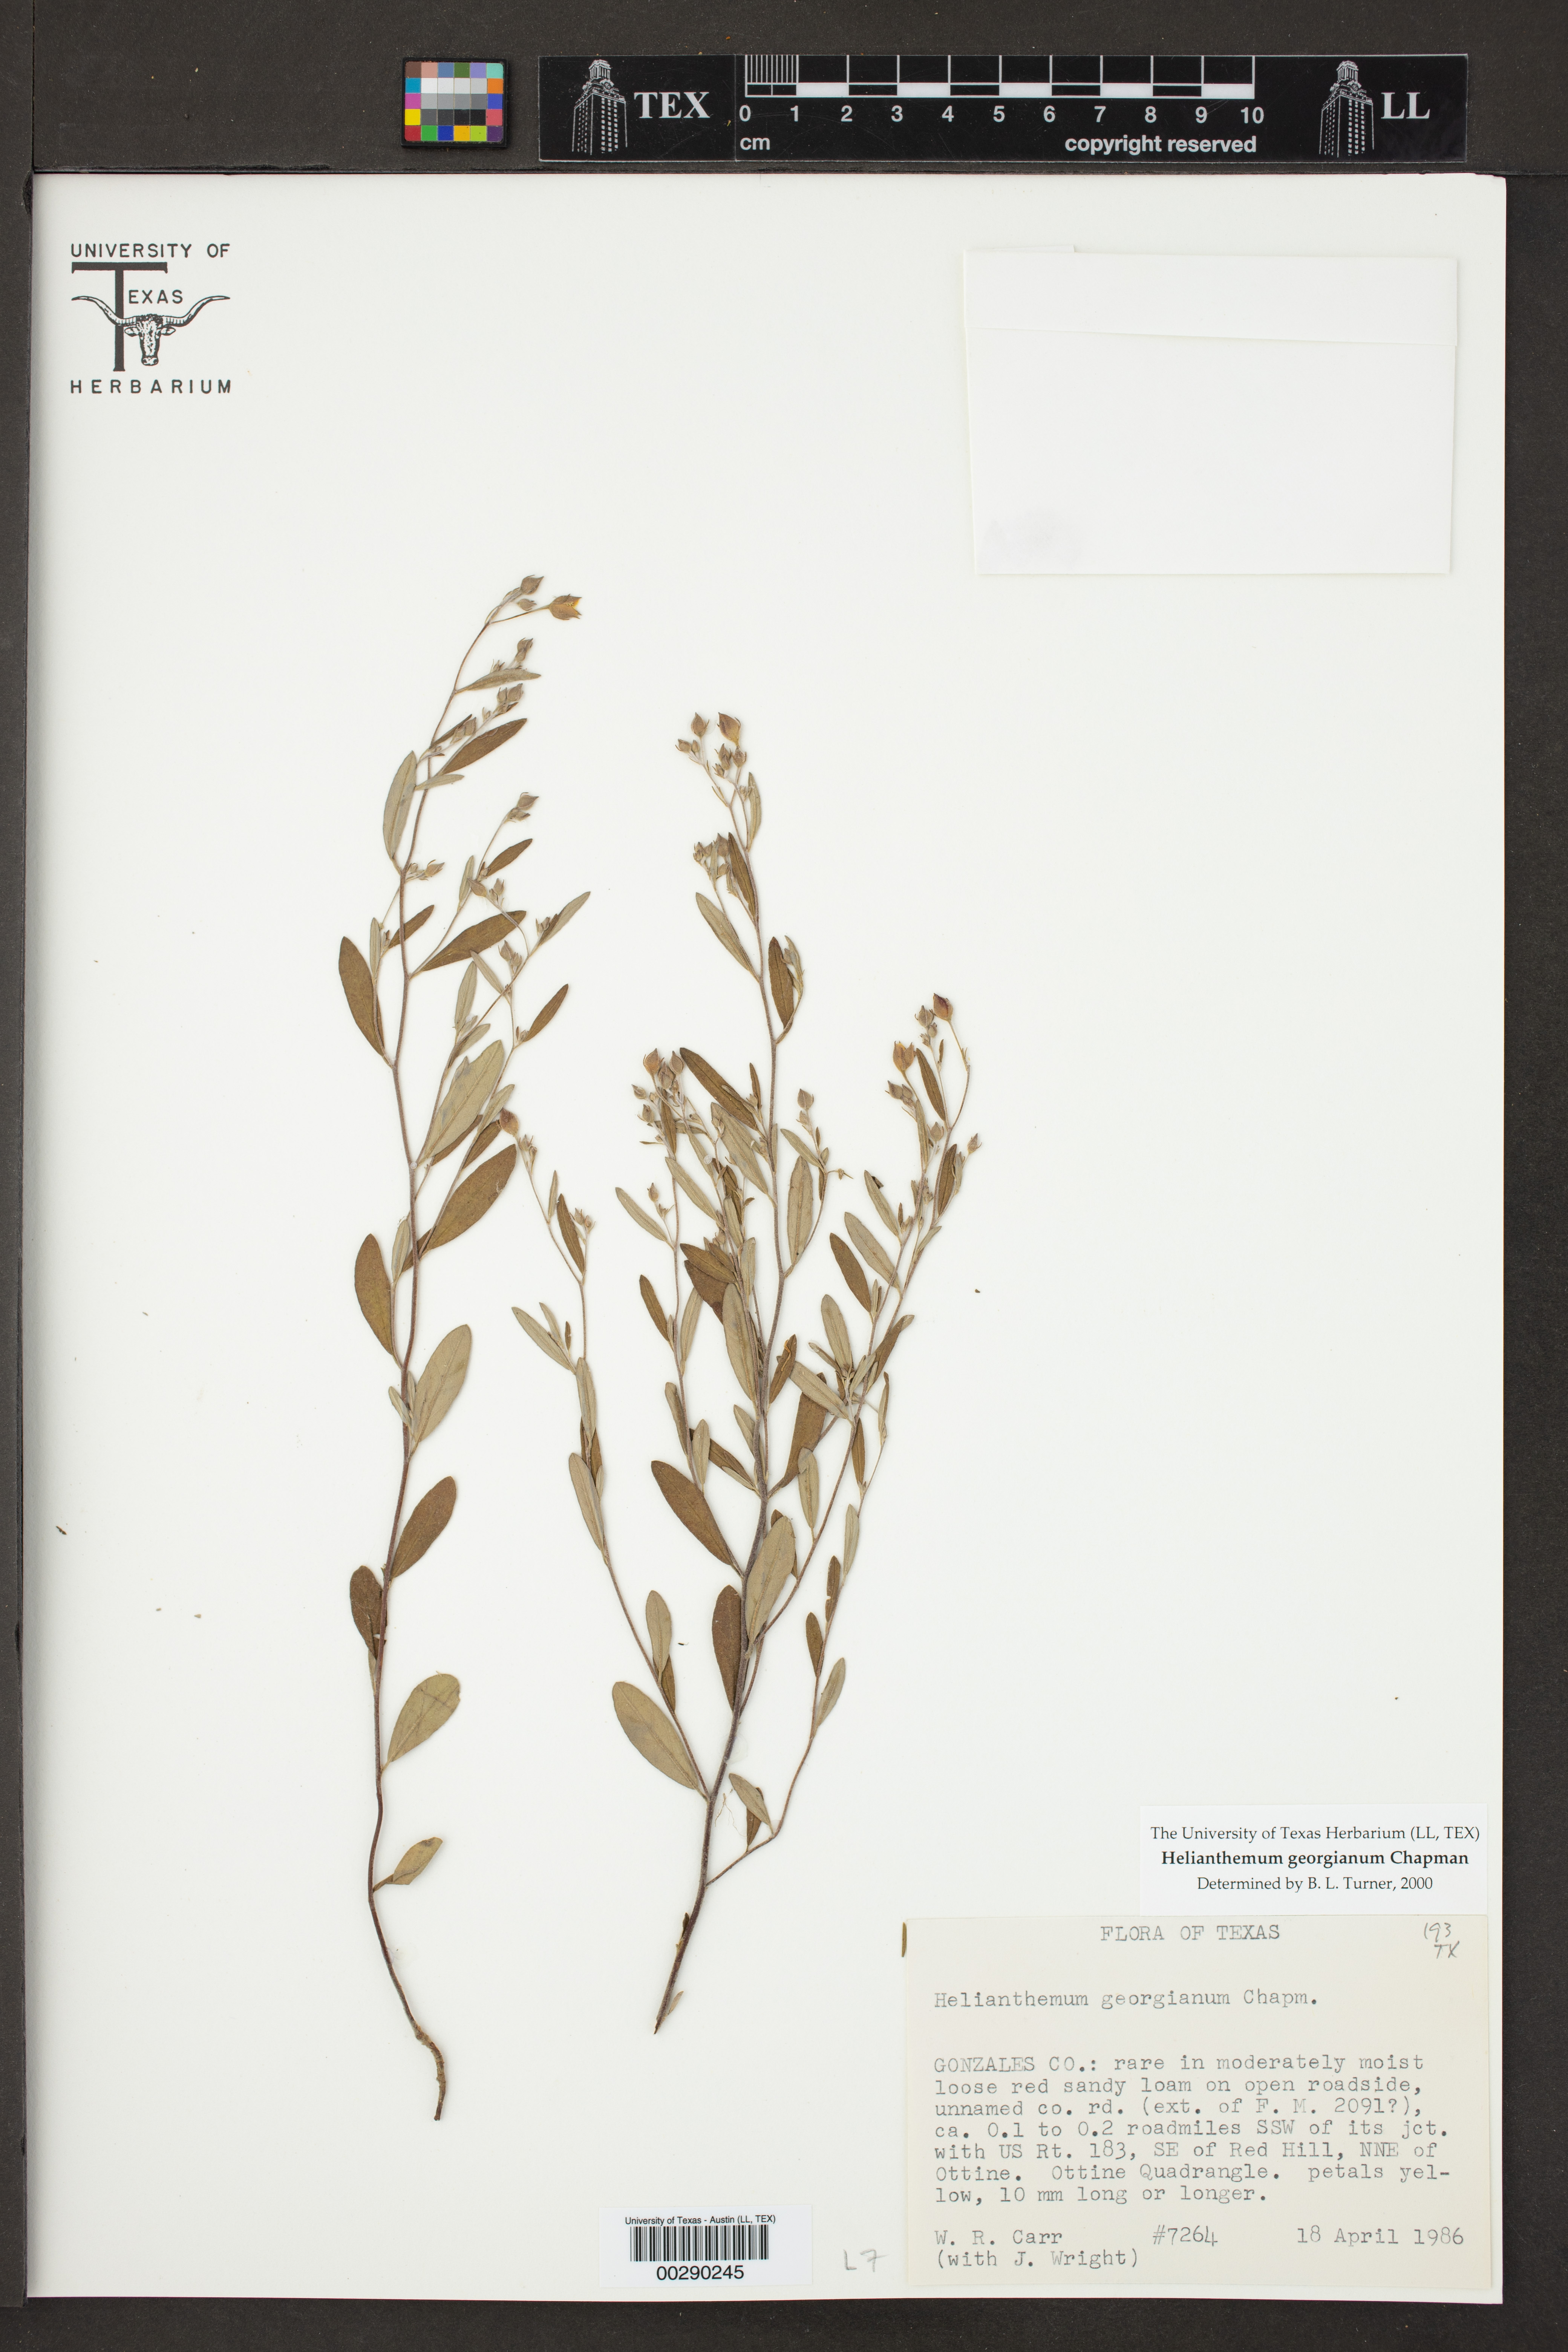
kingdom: Plantae
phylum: Tracheophyta
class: Magnoliopsida
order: Malvales
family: Cistaceae
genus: Crocanthemum
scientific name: Crocanthemum georgianum
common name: Georgia frostweed
